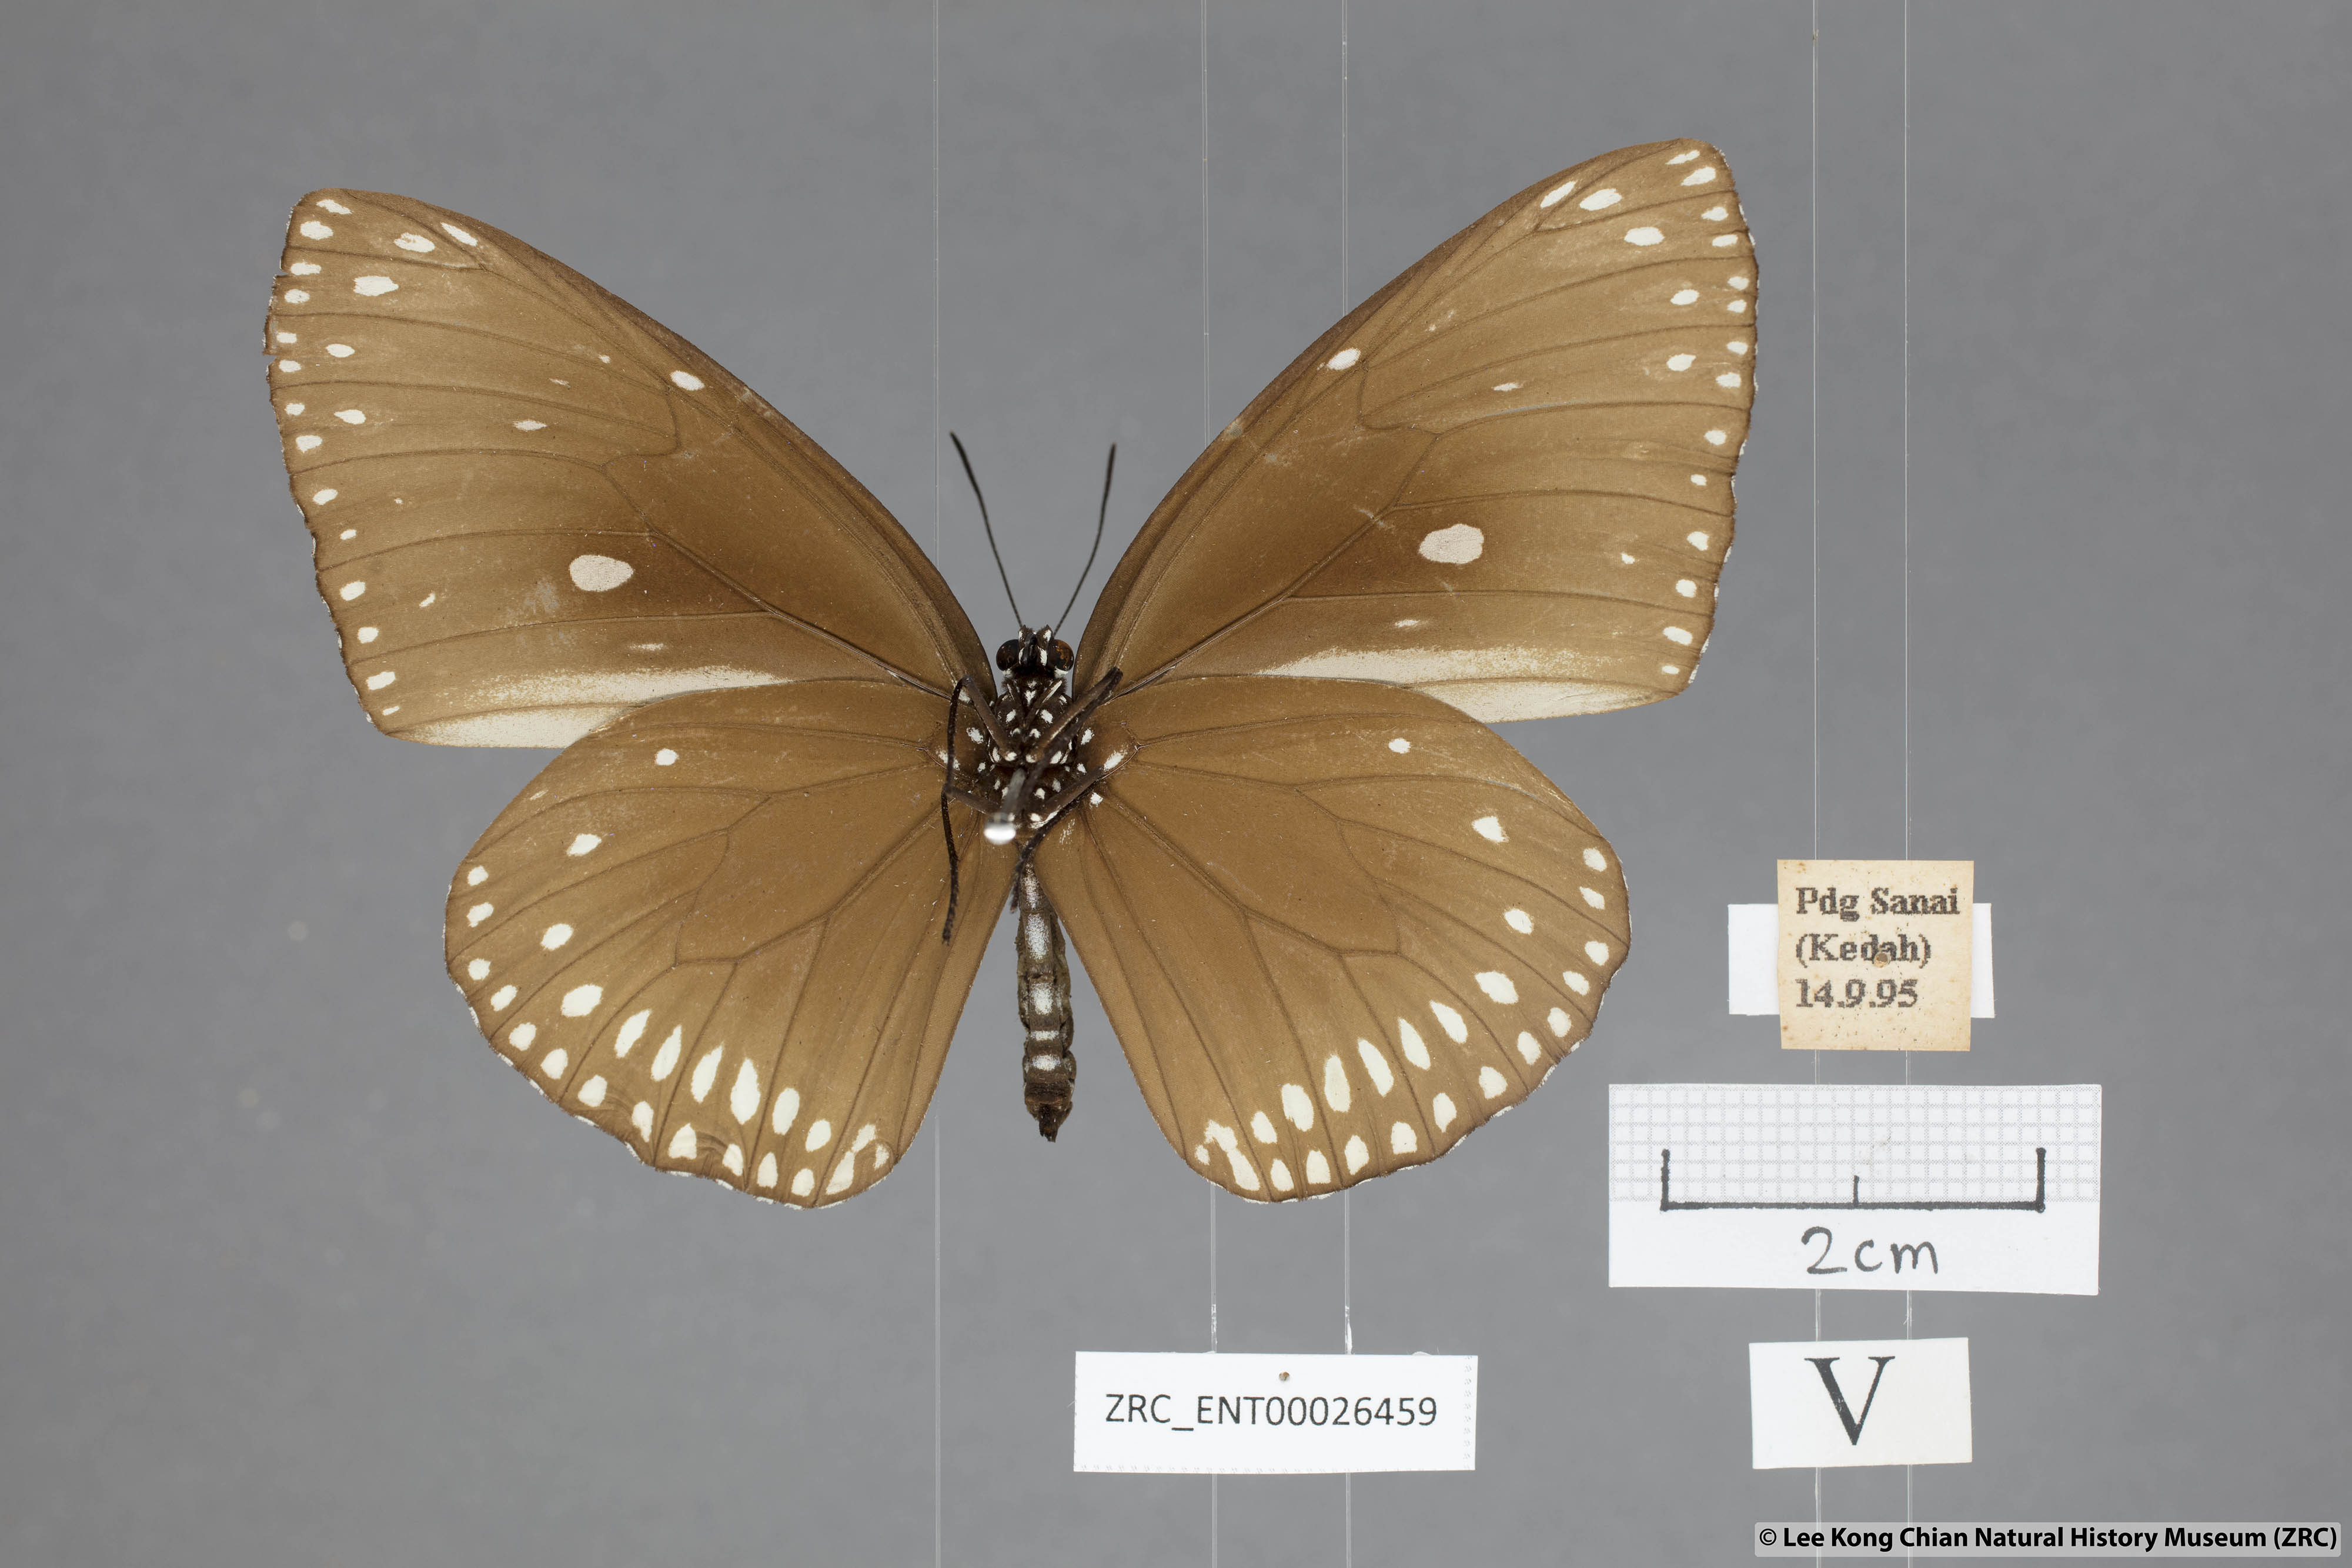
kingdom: Animalia
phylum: Arthropoda
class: Insecta
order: Lepidoptera
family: Nymphalidae
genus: Euploea
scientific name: Euploea klugii
